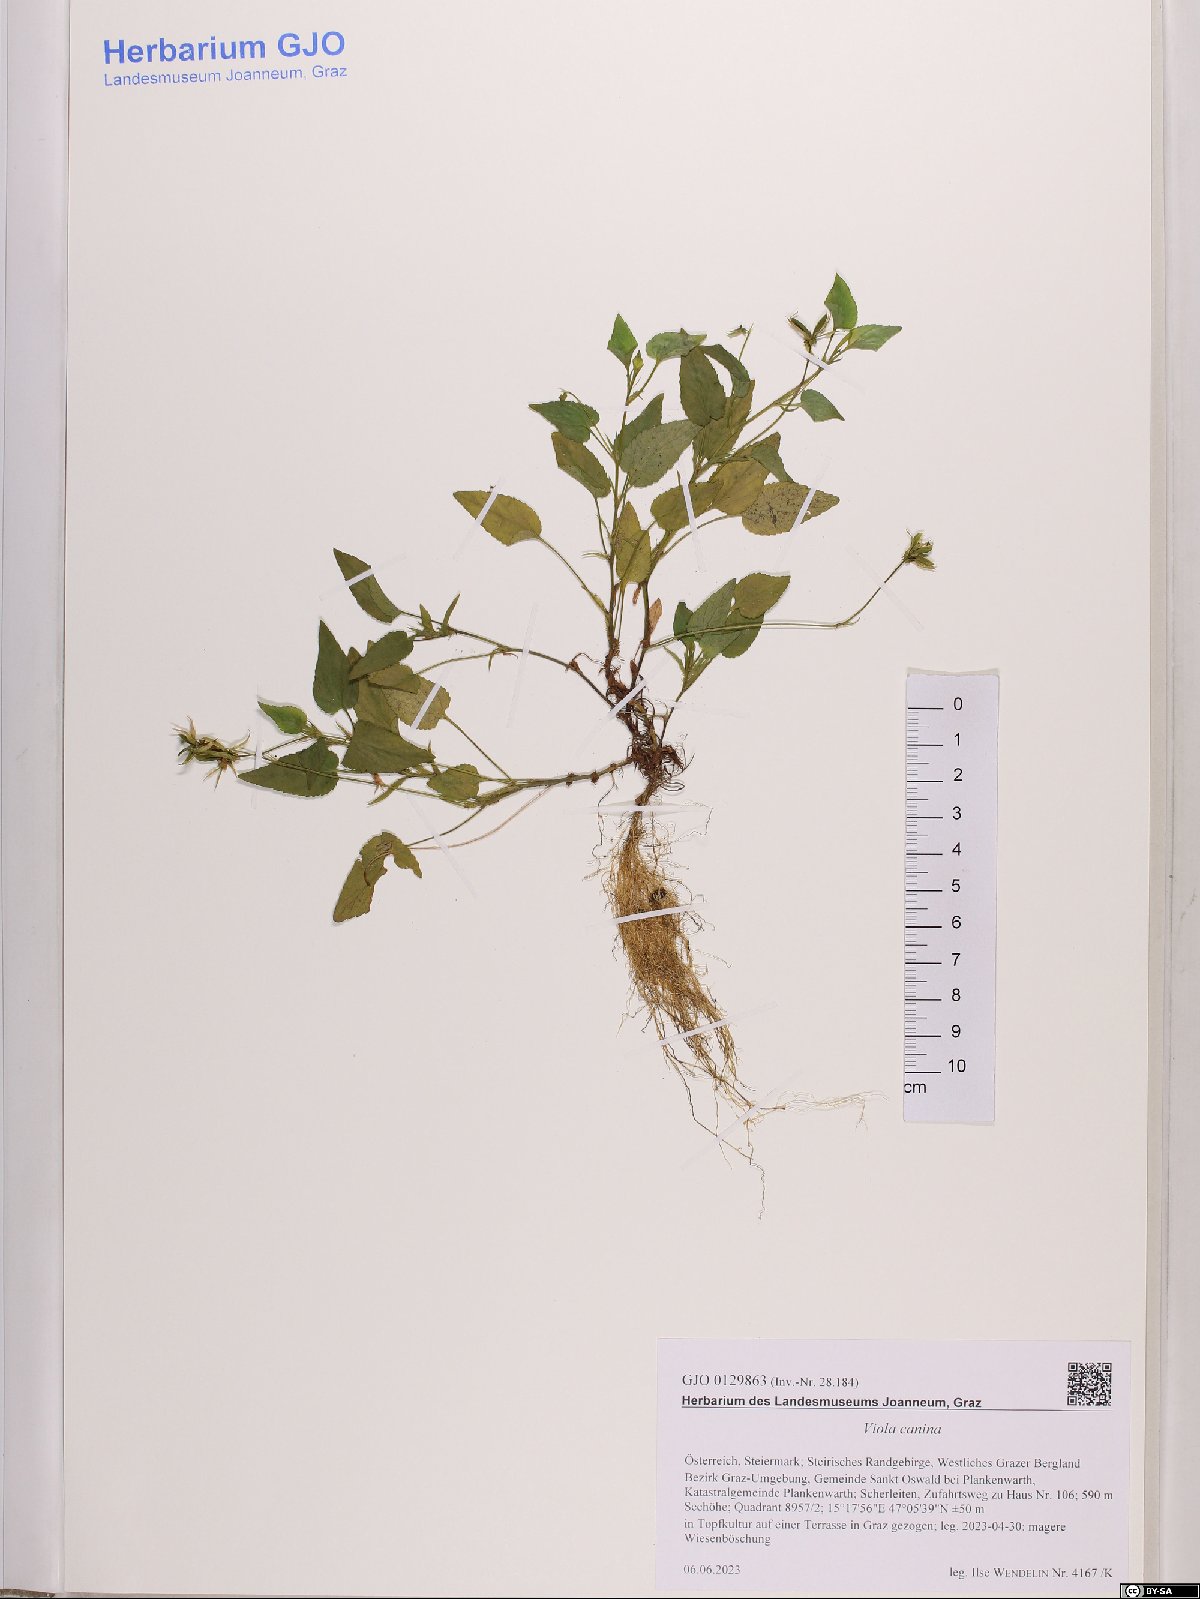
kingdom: Plantae
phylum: Tracheophyta
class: Magnoliopsida
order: Malpighiales
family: Violaceae
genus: Viola
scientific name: Viola canina
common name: Heath dog-violet
